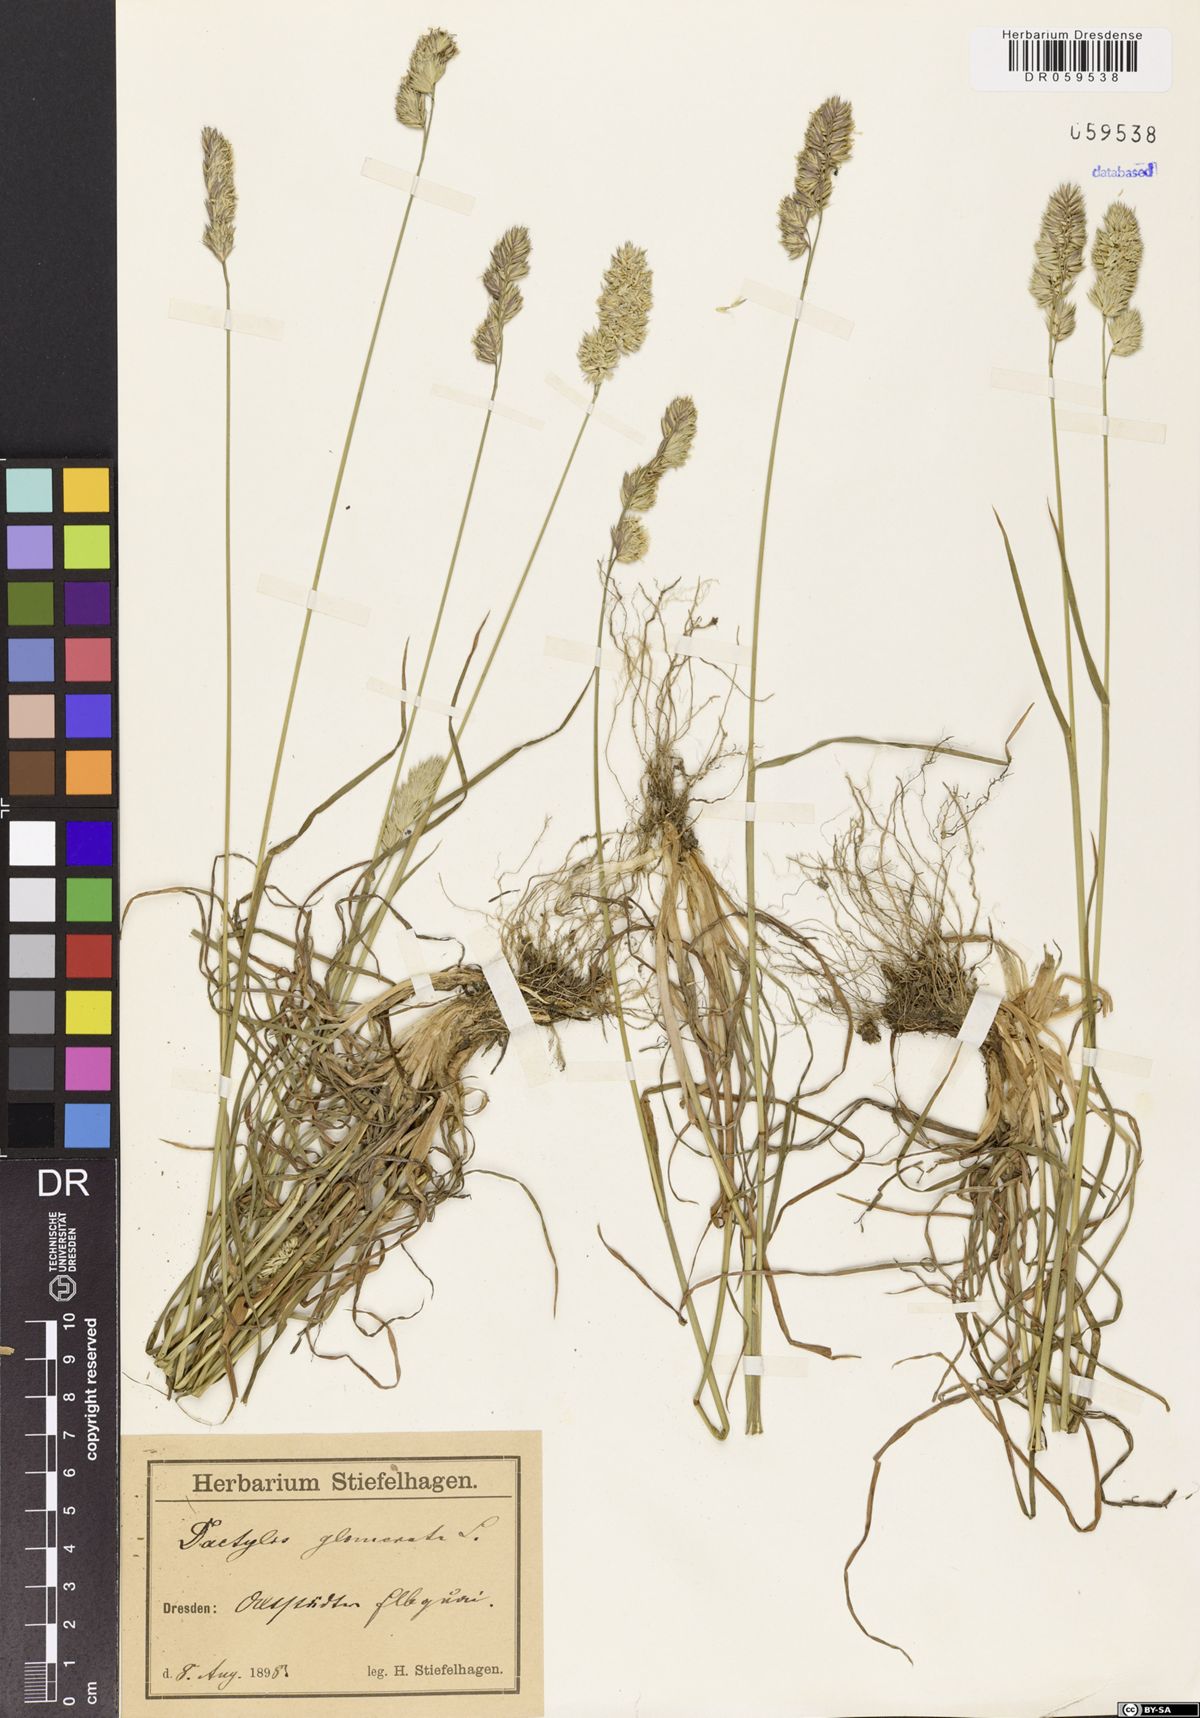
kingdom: Plantae
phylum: Tracheophyta
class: Liliopsida
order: Poales
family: Poaceae
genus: Dactylis
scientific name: Dactylis glomerata
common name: Orchardgrass
